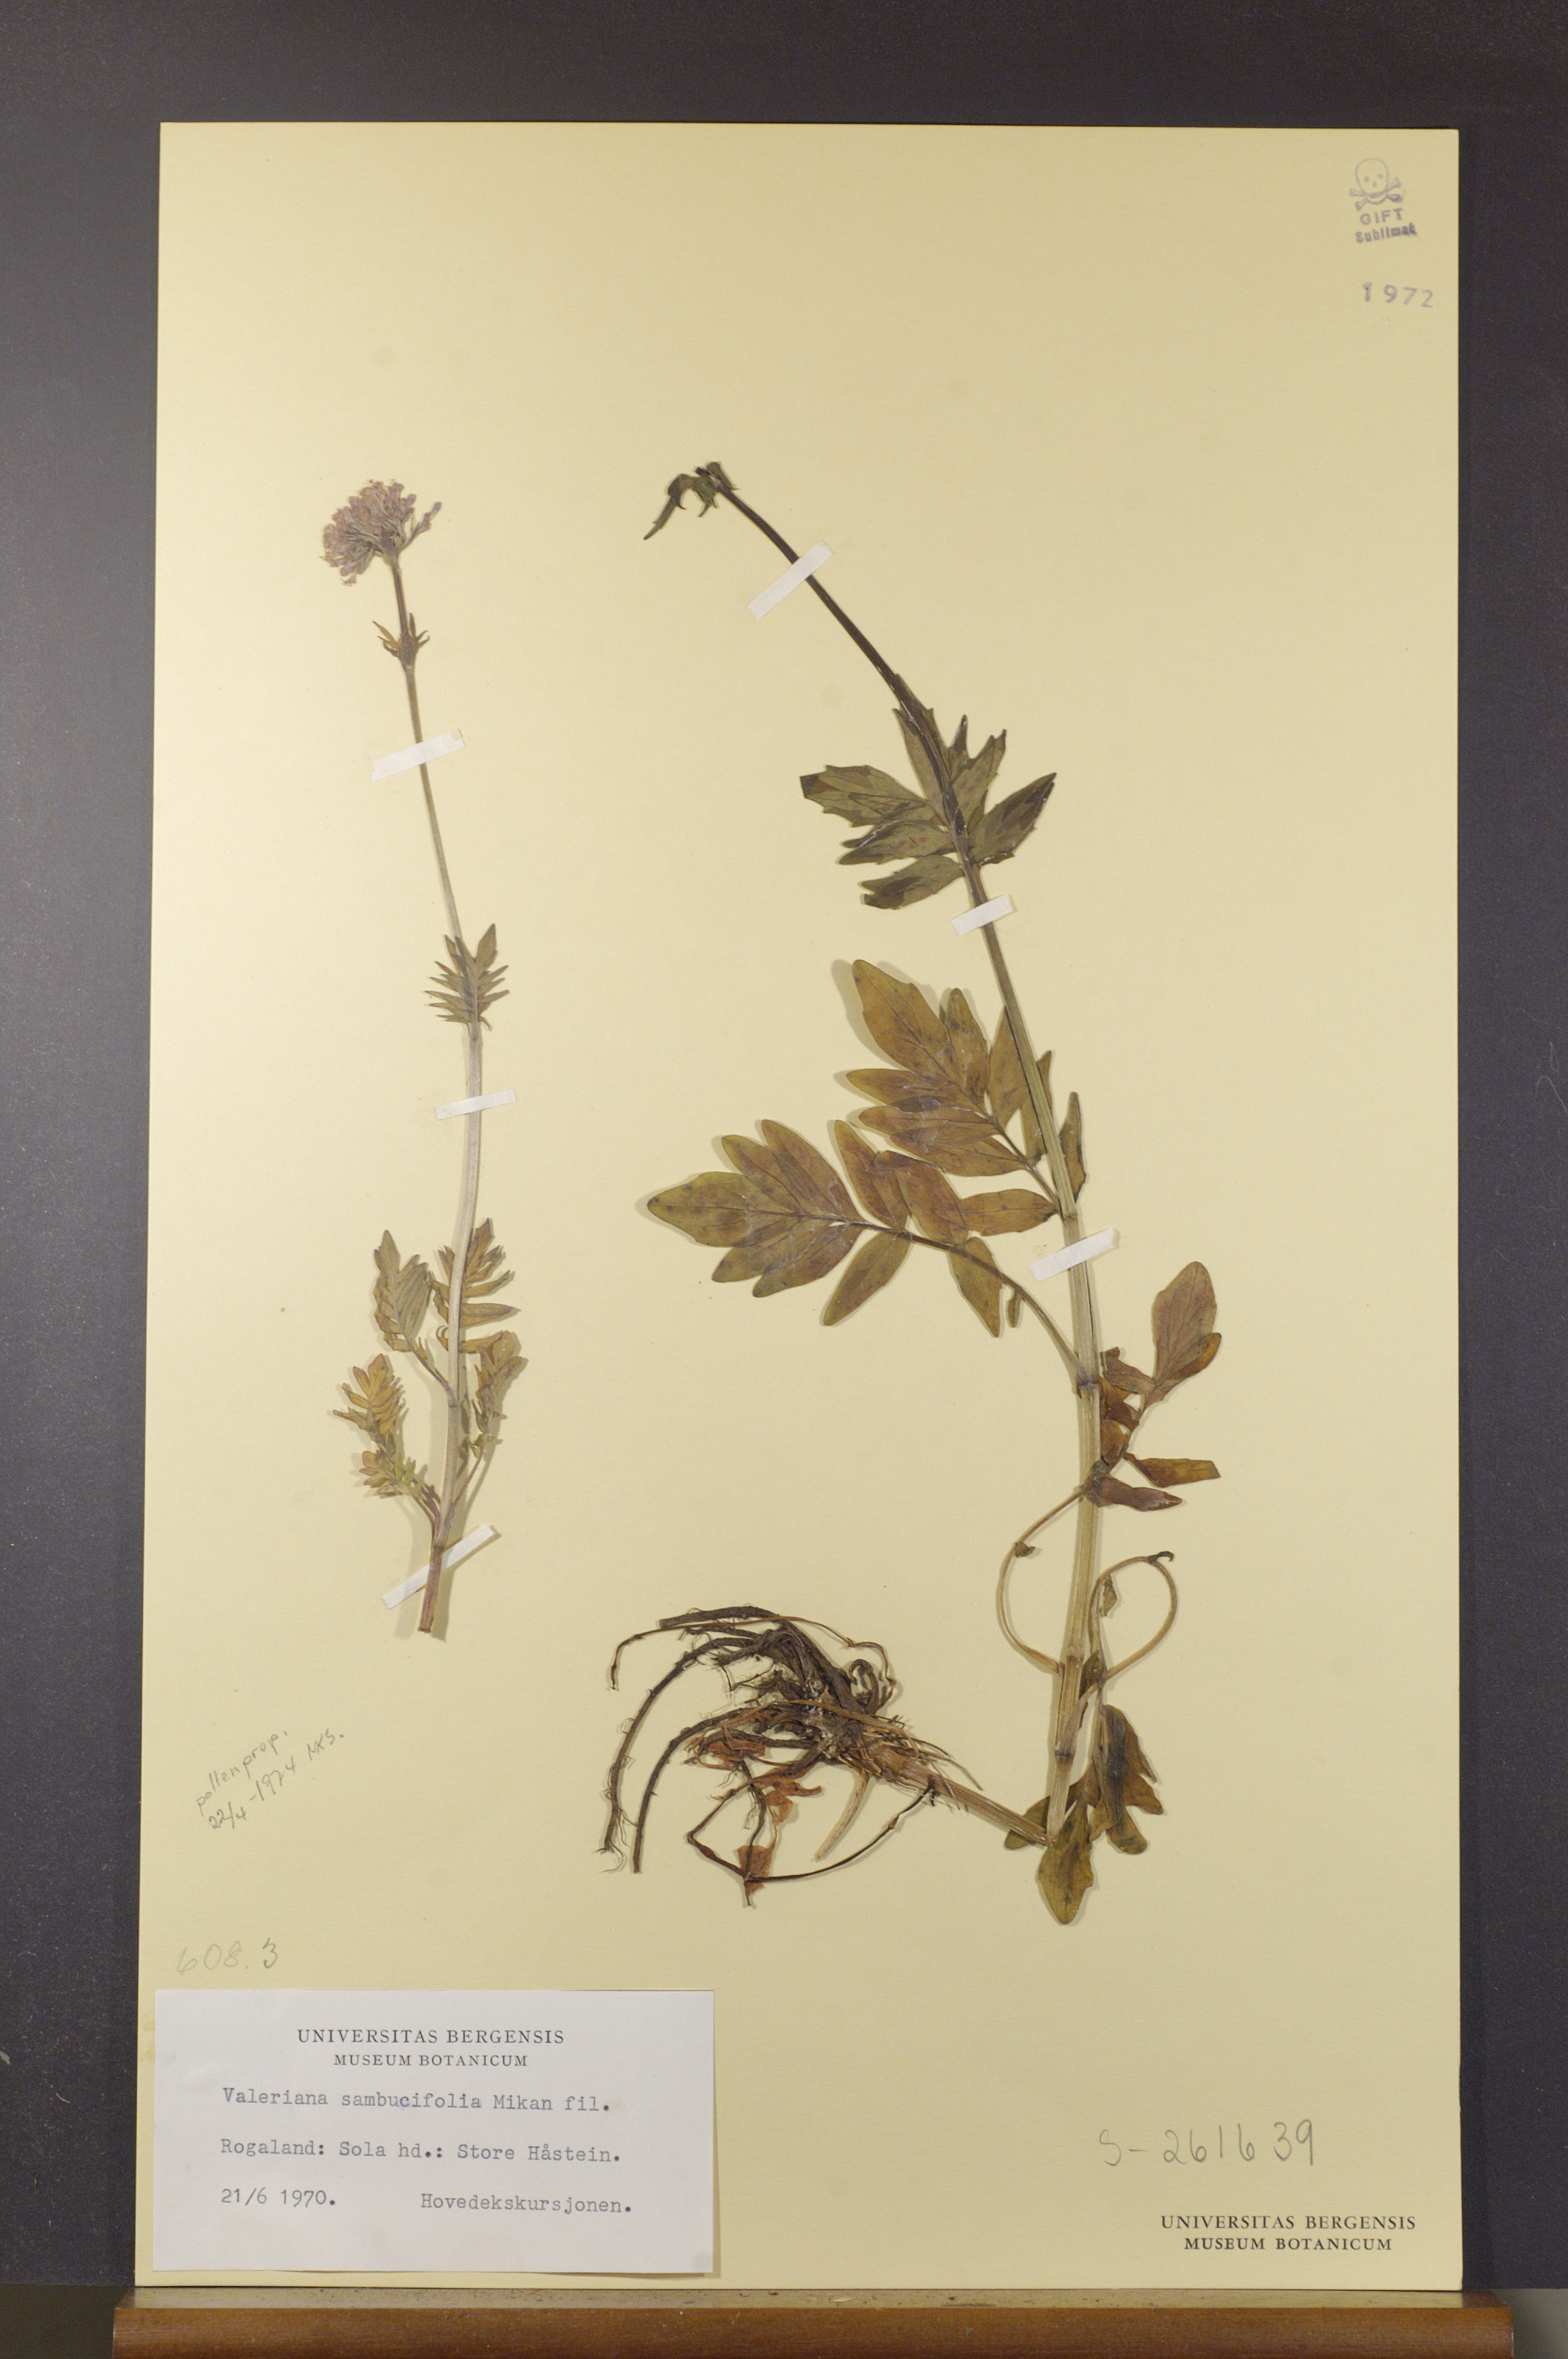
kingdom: Plantae
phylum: Tracheophyta
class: Magnoliopsida
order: Dipsacales
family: Caprifoliaceae
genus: Valeriana
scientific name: Valeriana excelsa
